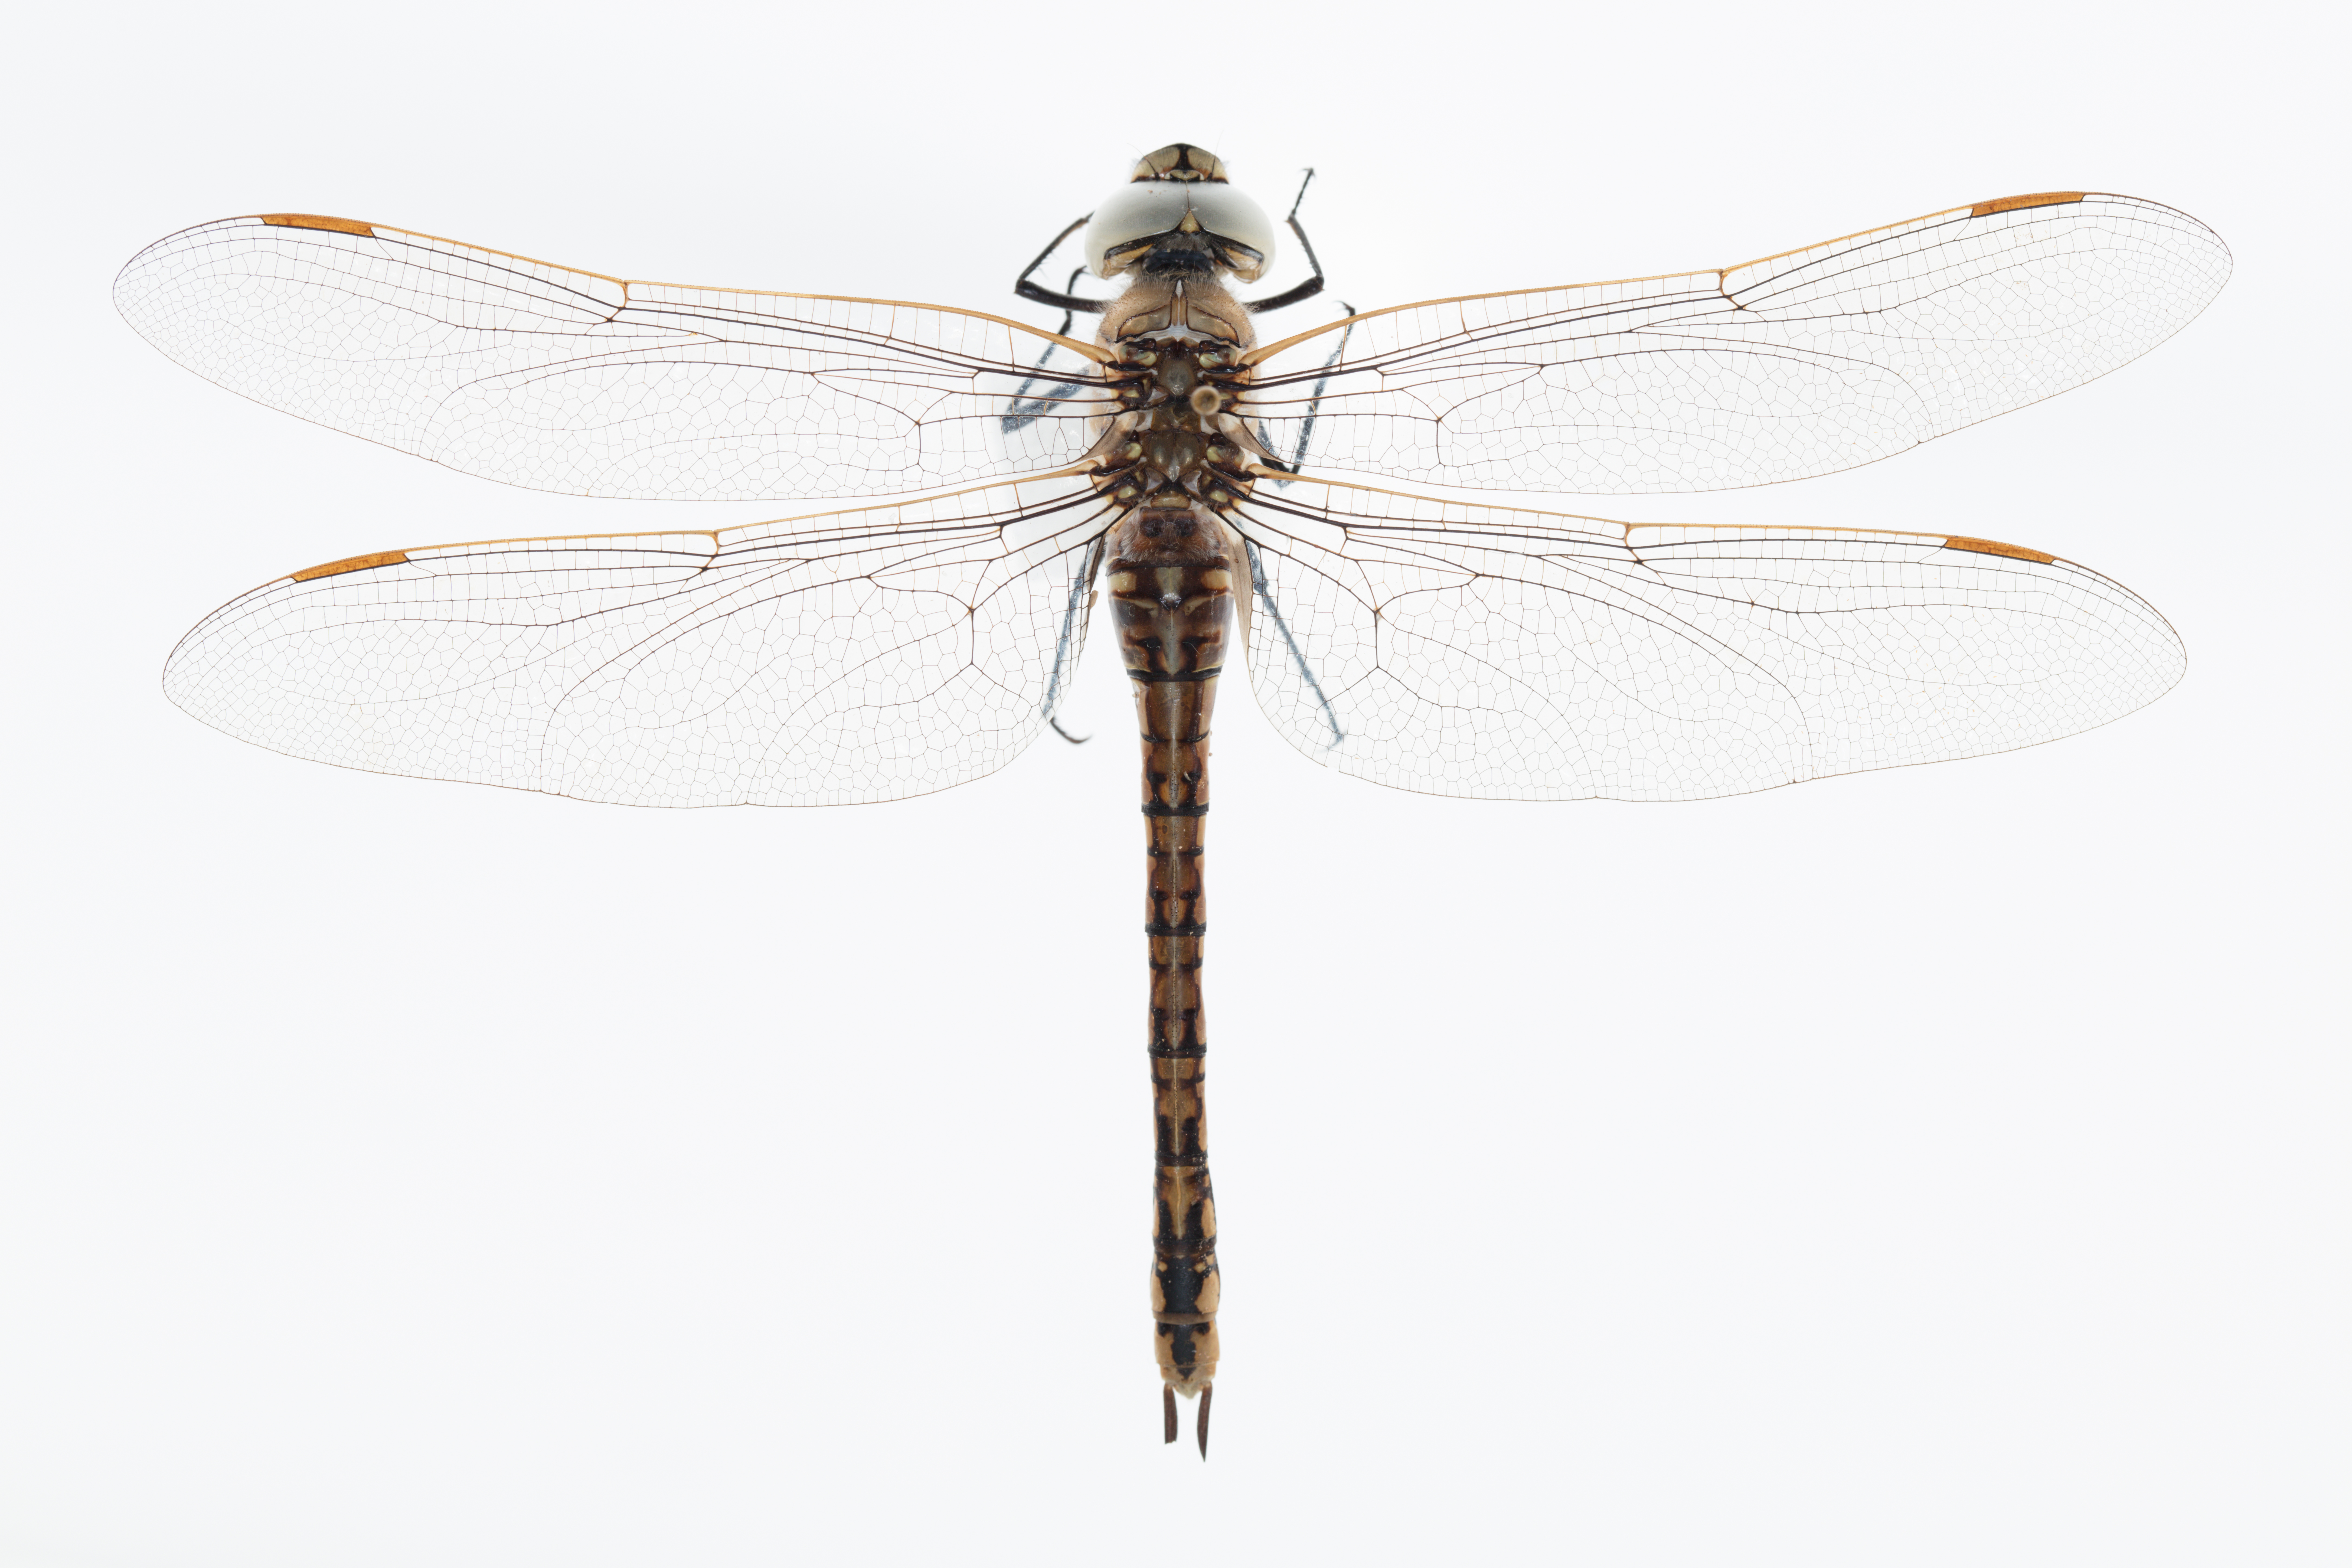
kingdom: Animalia
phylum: Arthropoda
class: Insecta
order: Odonata
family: Aeshnidae
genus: Anax
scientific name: Anax papuensis
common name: Australian emperor
